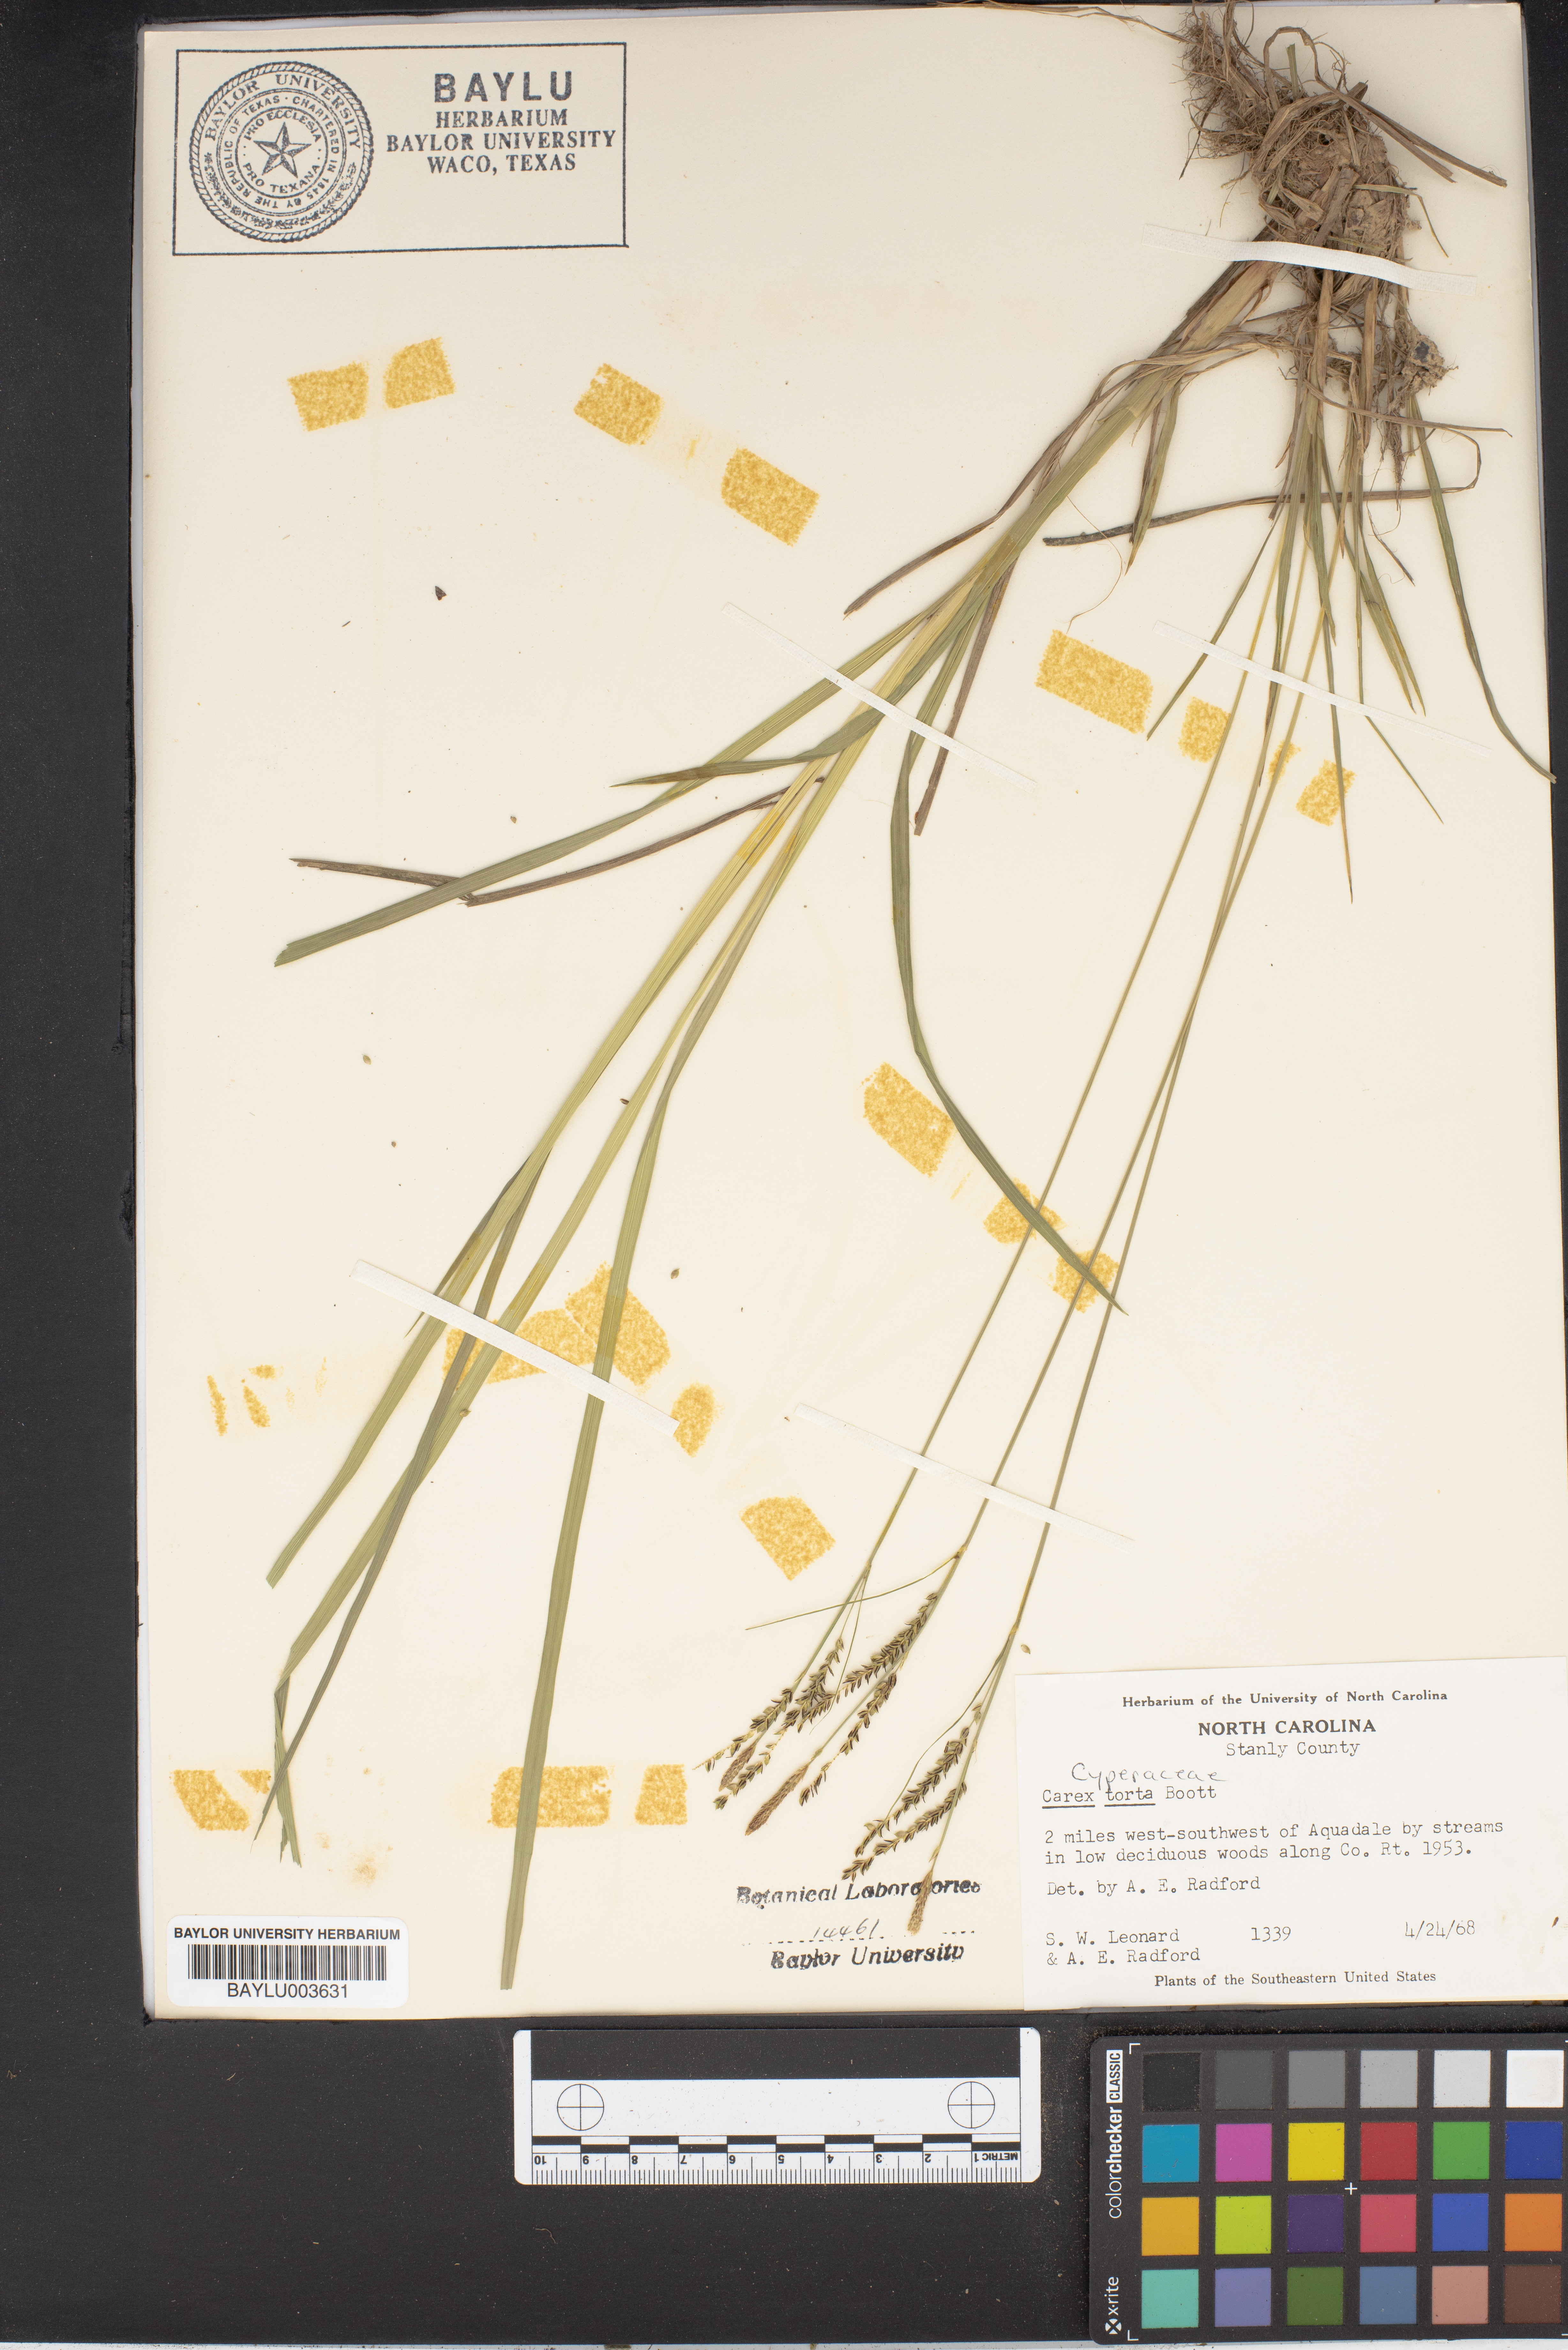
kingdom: Plantae
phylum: Tracheophyta
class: Liliopsida
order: Poales
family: Cyperaceae
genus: Carex
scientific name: Carex torta
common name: Twisted sedge
